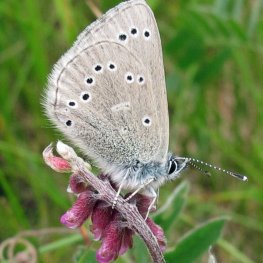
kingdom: Animalia
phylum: Arthropoda
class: Insecta
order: Lepidoptera
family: Lycaenidae
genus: Glaucopsyche
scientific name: Glaucopsyche lygdamus
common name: Silvery Blue
